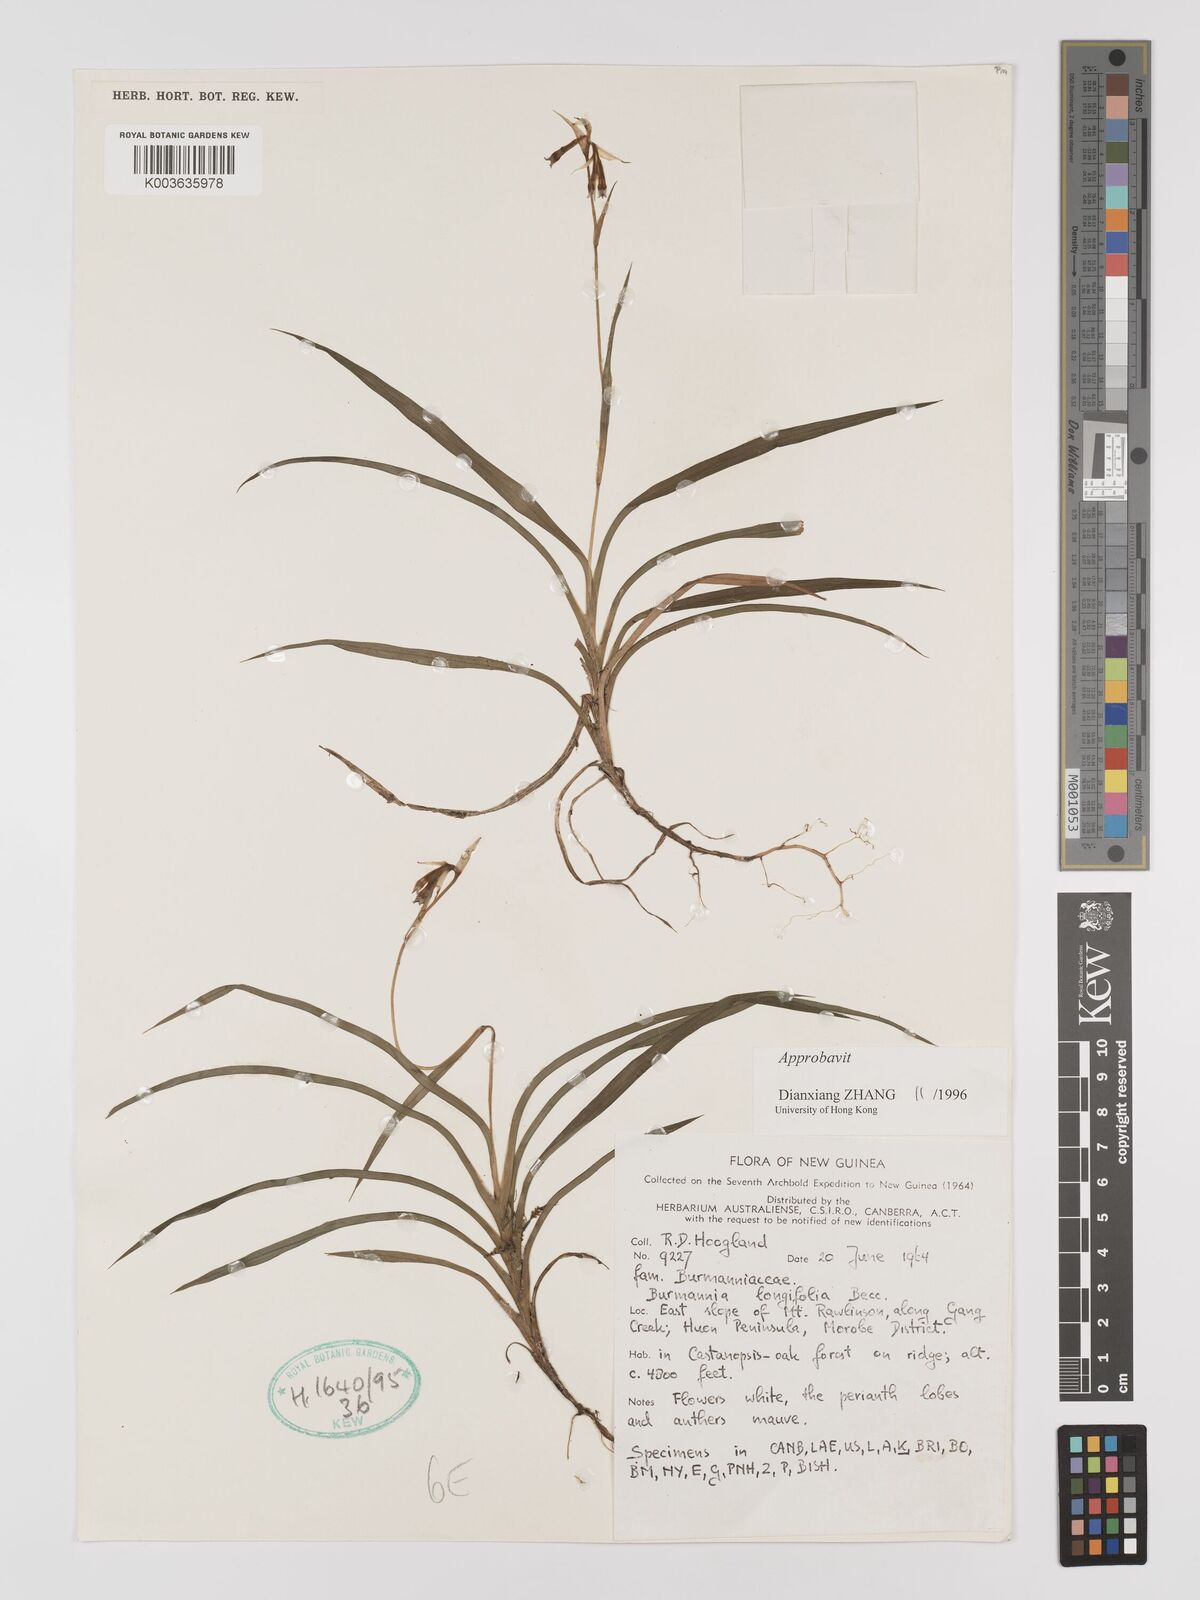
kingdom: Plantae
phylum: Tracheophyta
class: Liliopsida
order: Dioscoreales
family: Burmanniaceae
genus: Burmannia
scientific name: Burmannia longifolia
